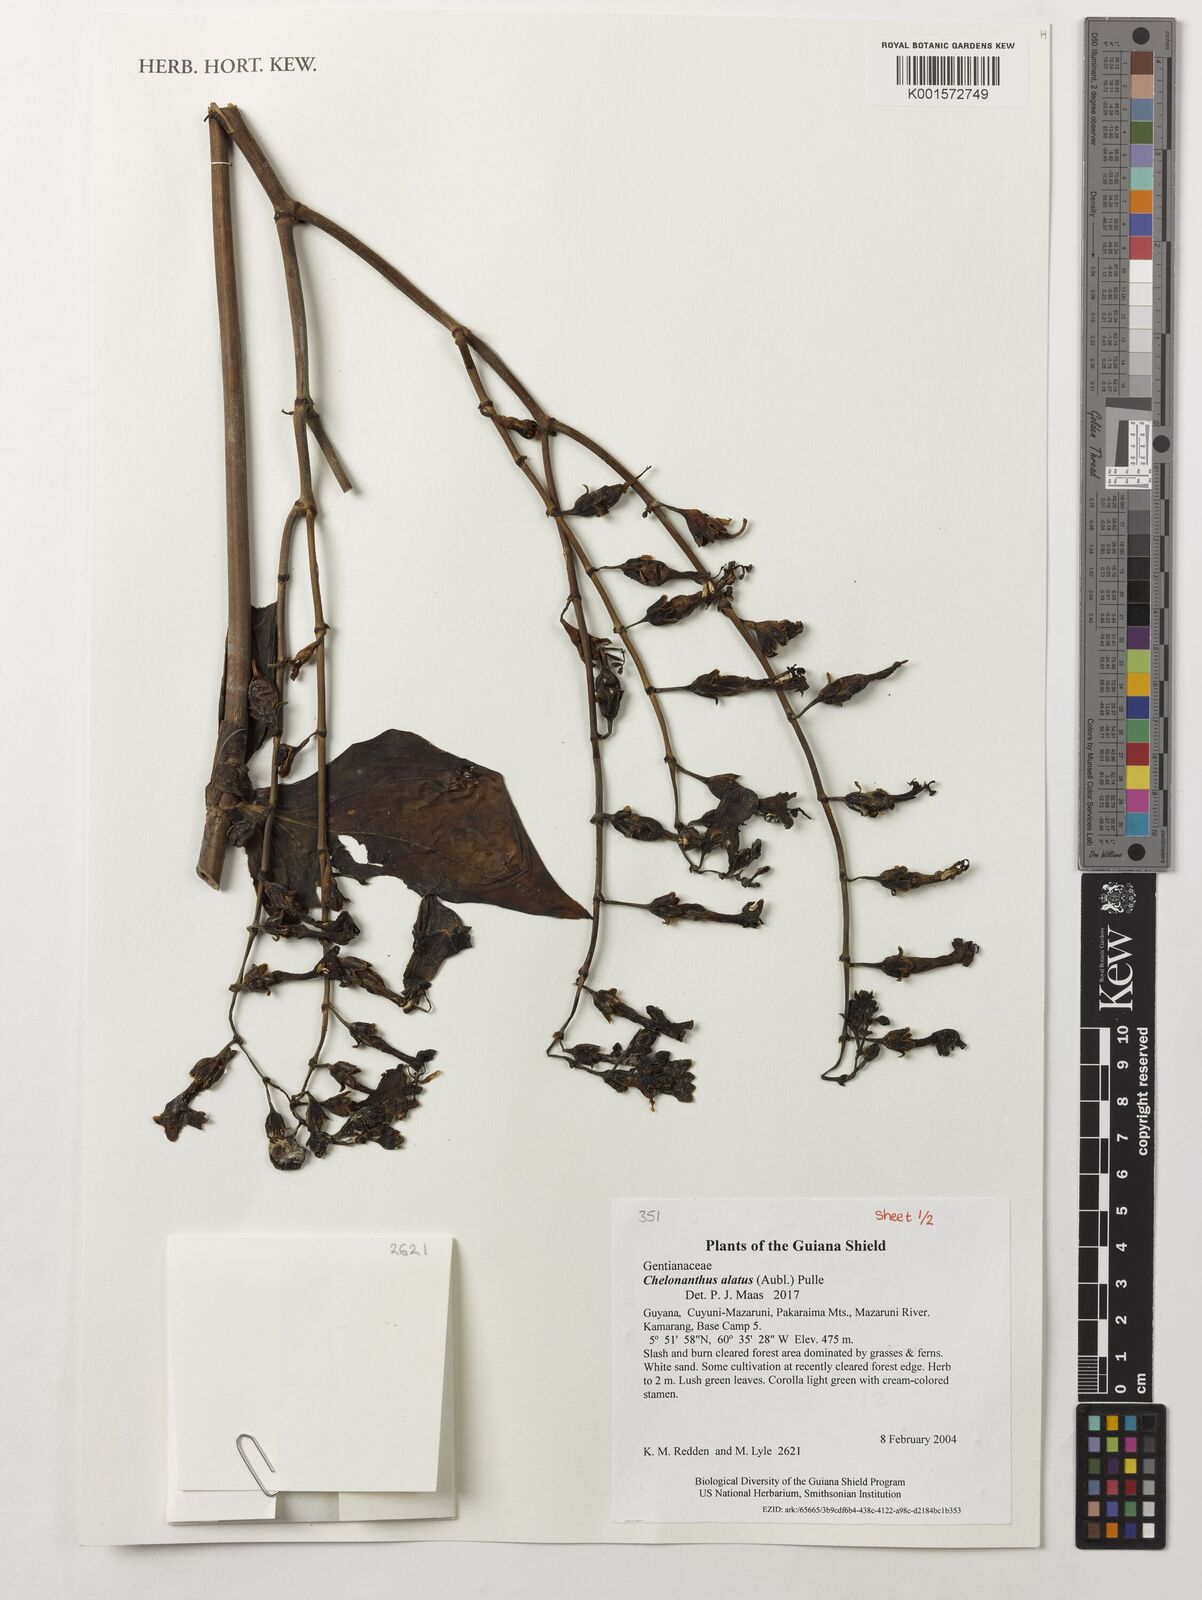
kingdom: Plantae
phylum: Tracheophyta
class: Magnoliopsida
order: Gentianales
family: Gentianaceae
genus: Chelonanthus
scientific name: Chelonanthus alatus
